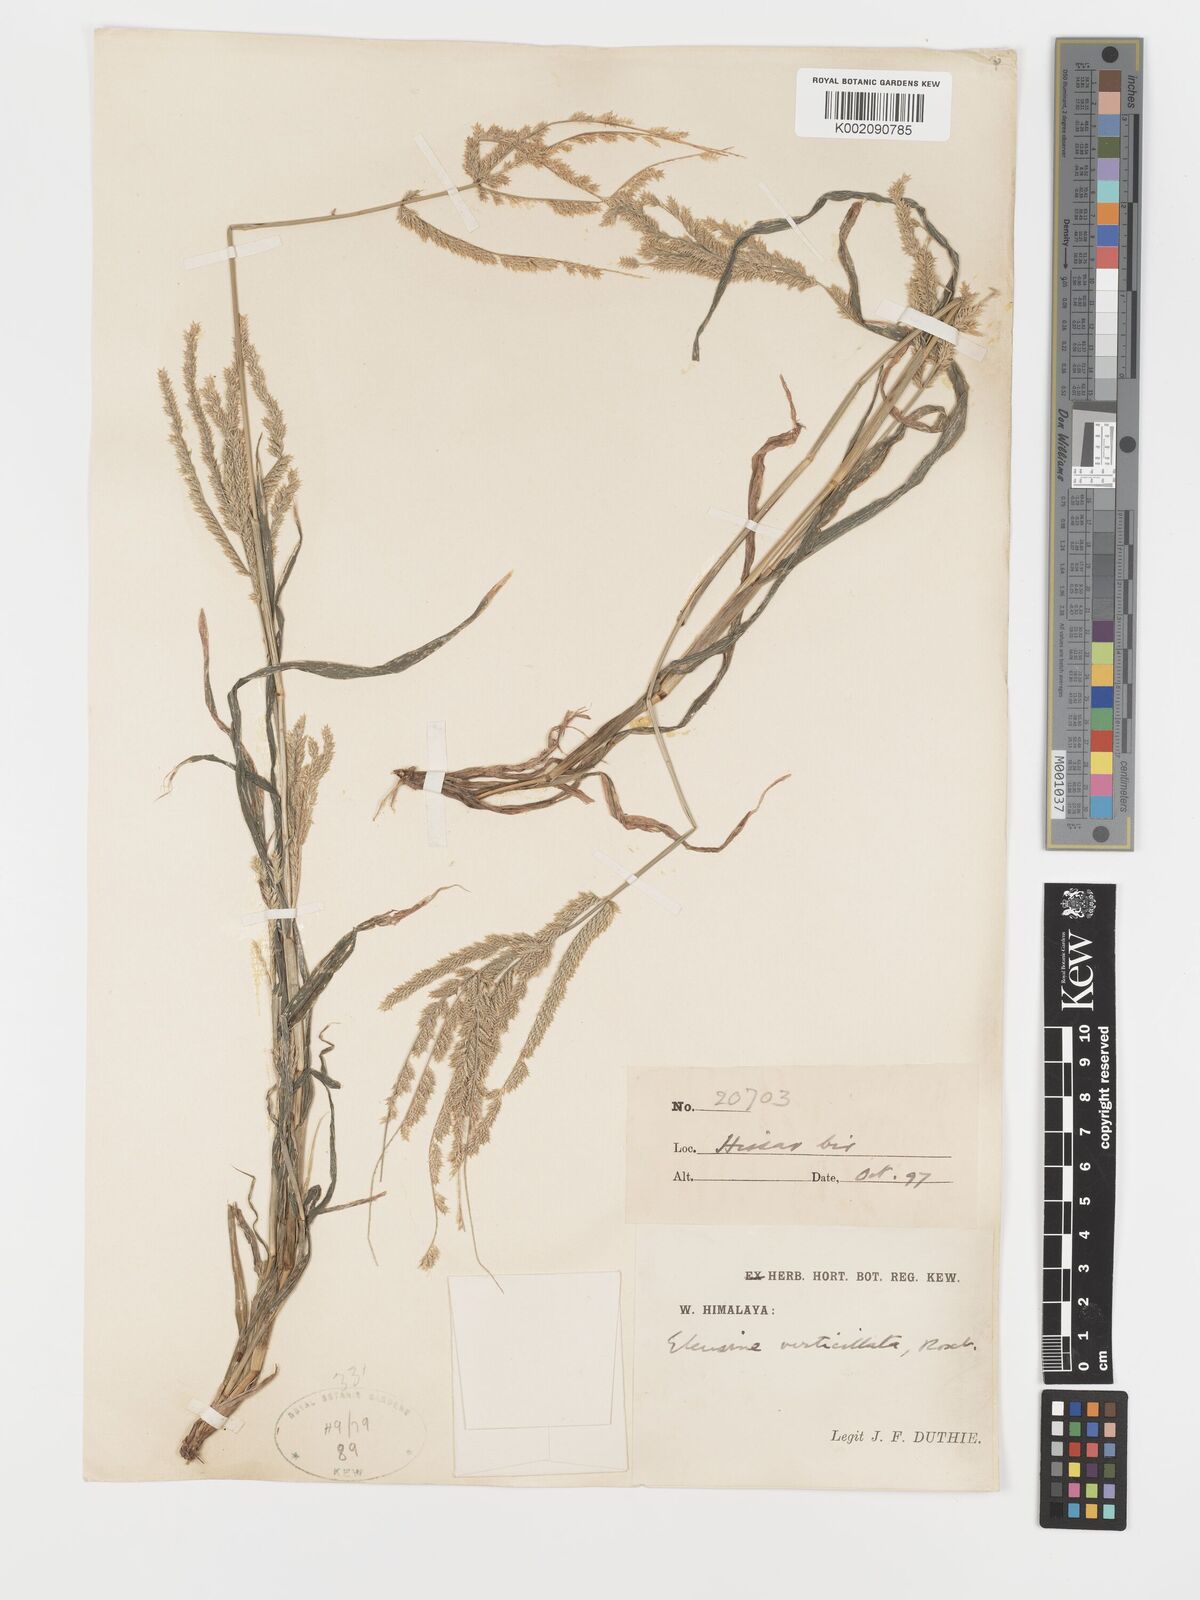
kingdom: Plantae
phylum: Tracheophyta
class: Liliopsida
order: Poales
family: Poaceae
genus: Acrachne
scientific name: Acrachne racemosa
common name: Goosegrass
